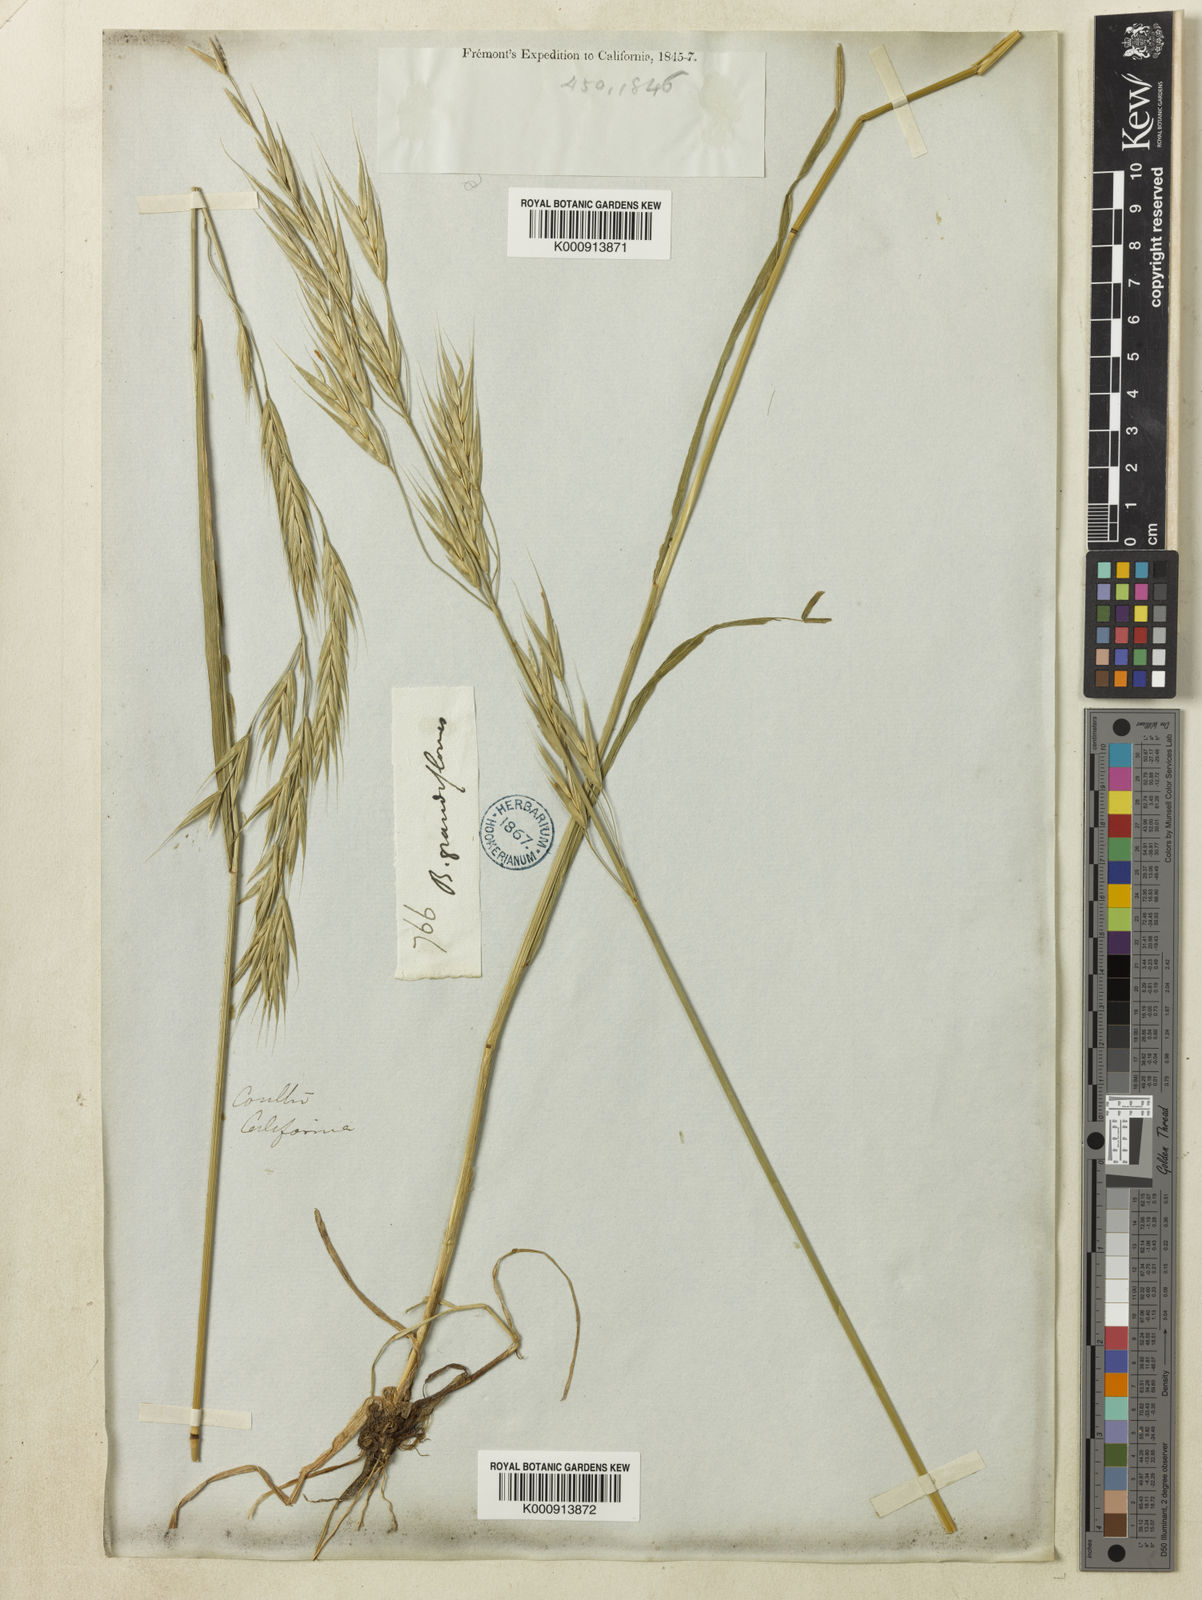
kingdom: Plantae
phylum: Tracheophyta
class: Liliopsida
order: Poales
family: Poaceae
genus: Bromus
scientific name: Bromus carinatus
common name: Mountain brome
